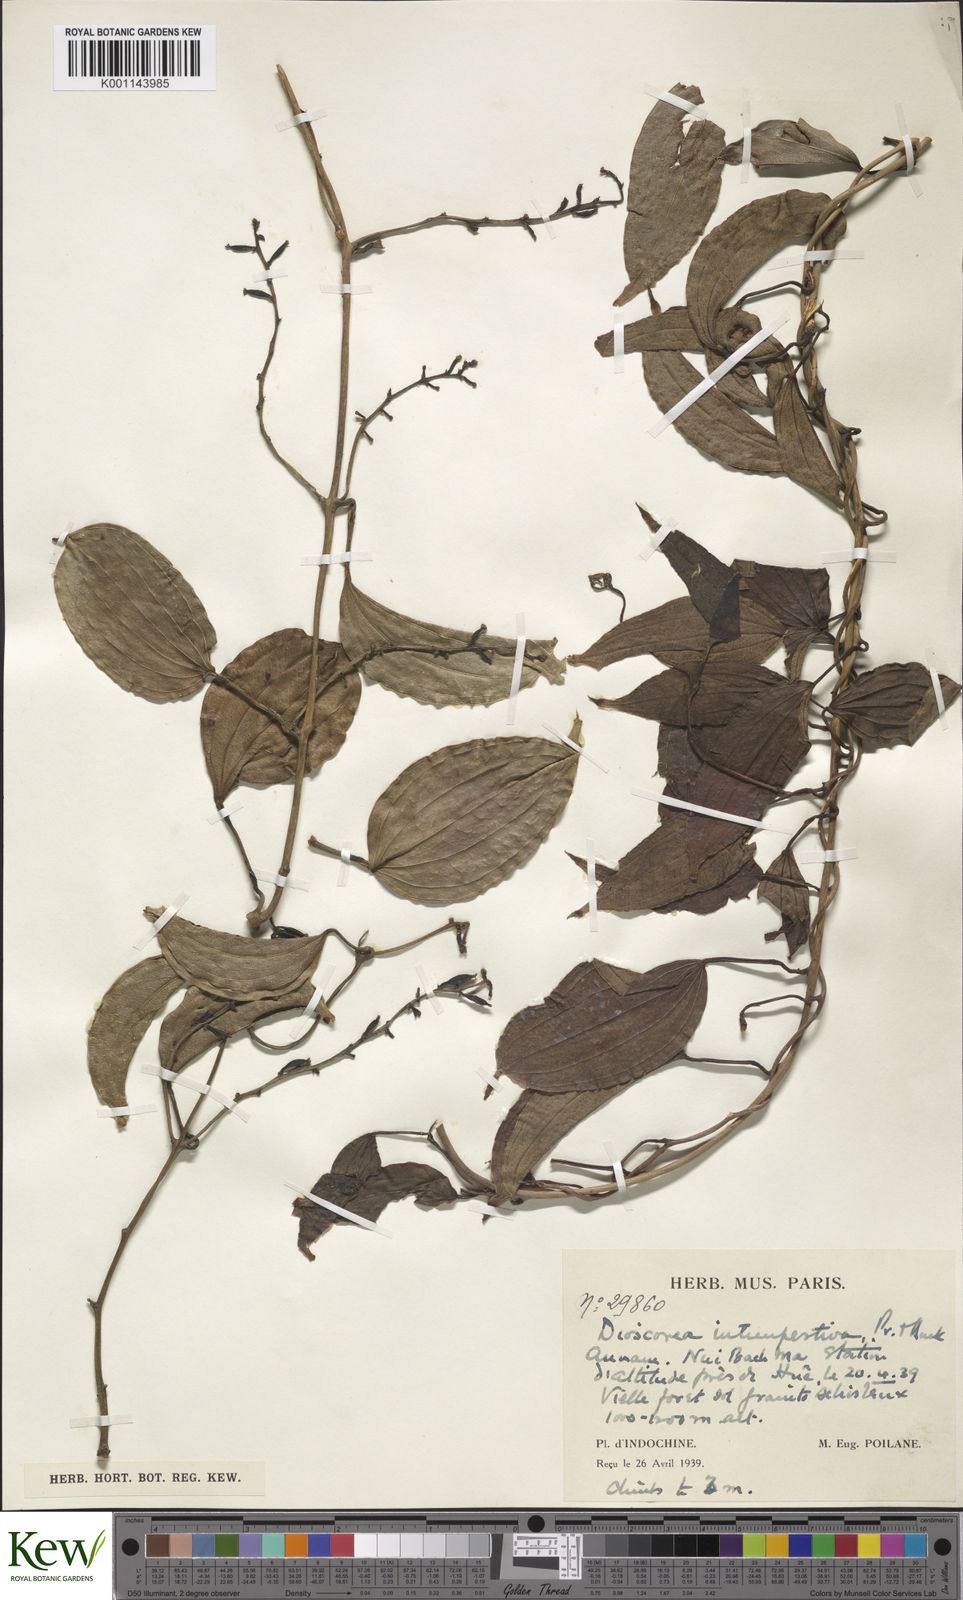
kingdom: Plantae
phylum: Tracheophyta
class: Liliopsida
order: Dioscoreales
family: Dioscoreaceae
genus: Dioscorea
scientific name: Dioscorea cirrhosa
